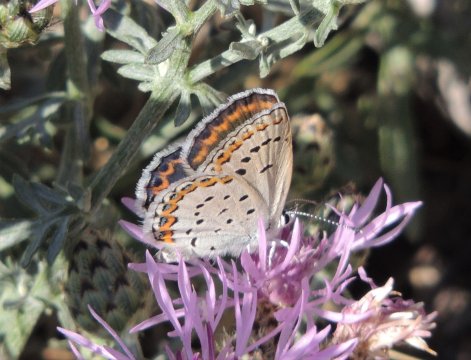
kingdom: Animalia
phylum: Arthropoda
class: Insecta
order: Lepidoptera
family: Lycaenidae
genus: Lycaeides
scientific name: Lycaeides melissa
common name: Melissa Blue
